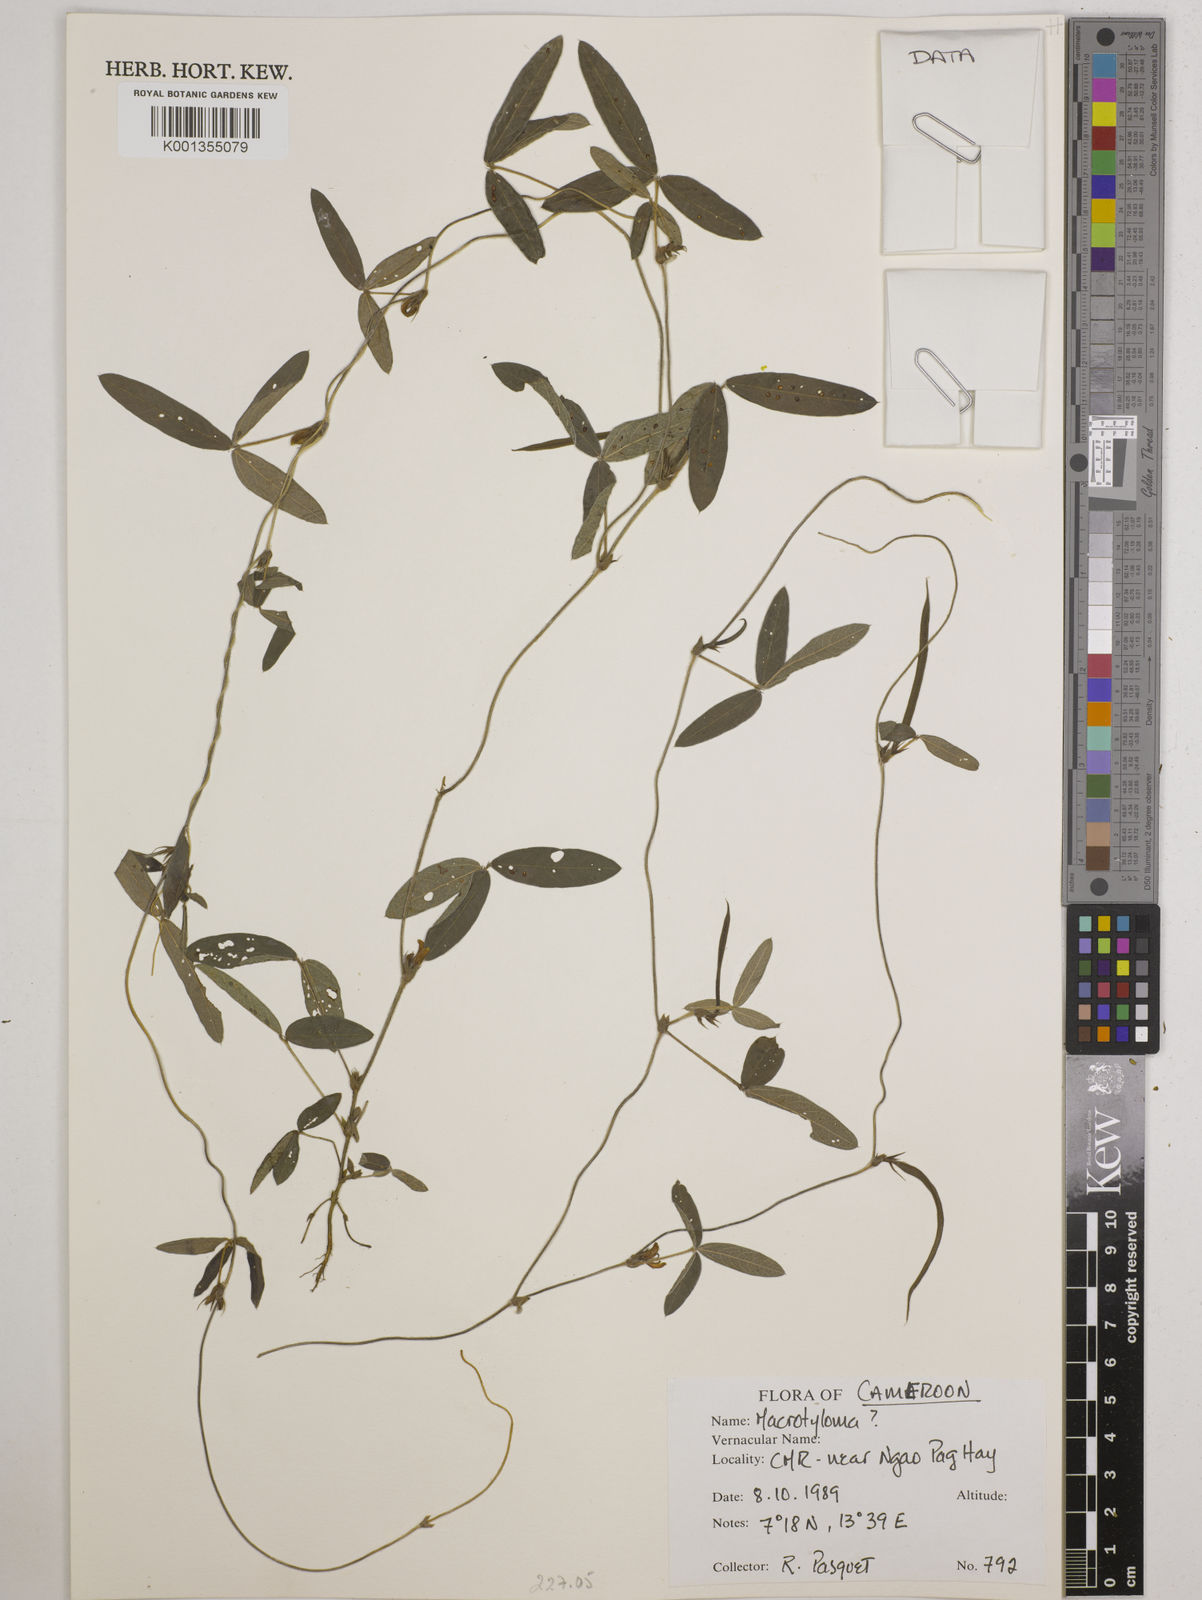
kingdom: Plantae
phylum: Tracheophyta
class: Magnoliopsida
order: Fabales
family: Fabaceae
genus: Macrotyloma
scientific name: Macrotyloma
